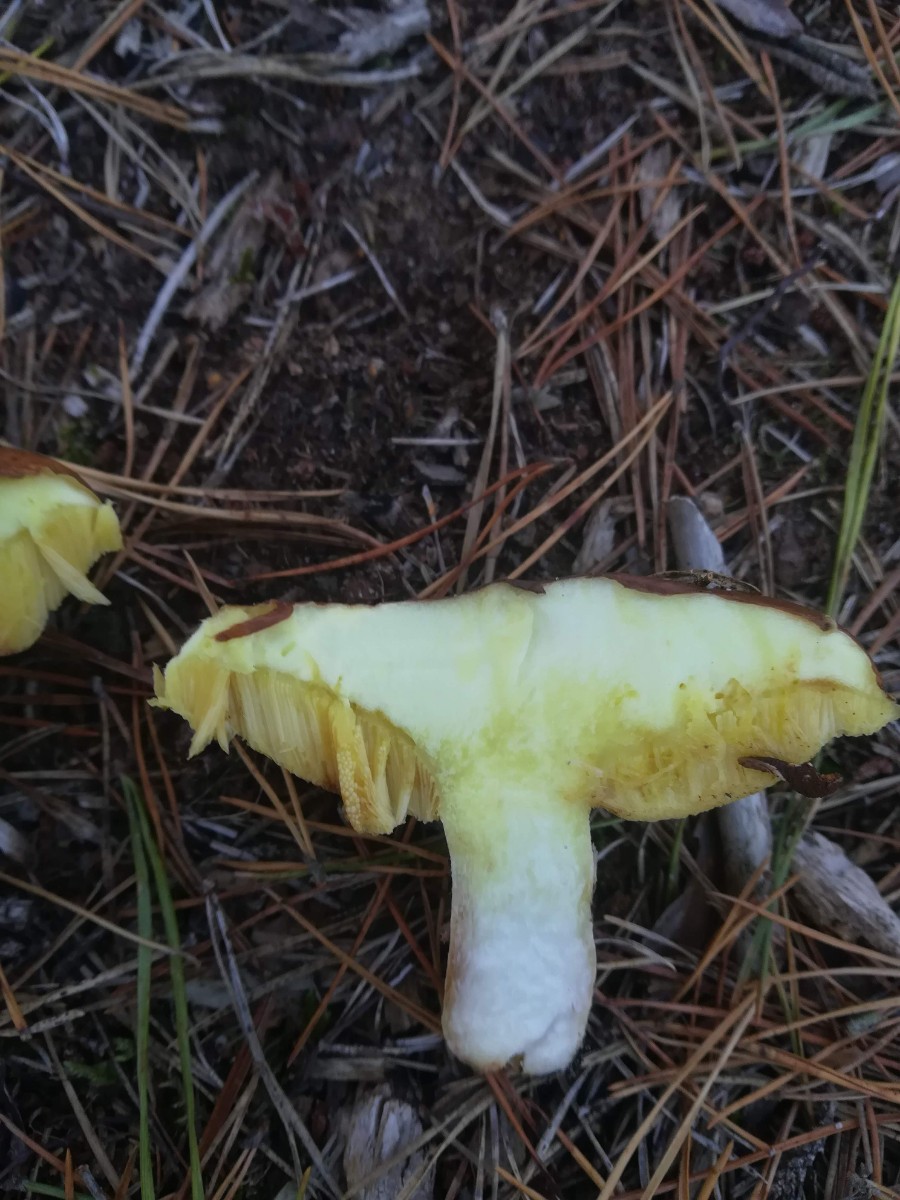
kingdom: Fungi
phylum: Basidiomycota
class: Agaricomycetes
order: Boletales
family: Suillaceae
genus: Suillus
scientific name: Suillus luteus
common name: brungul slimrørhat
